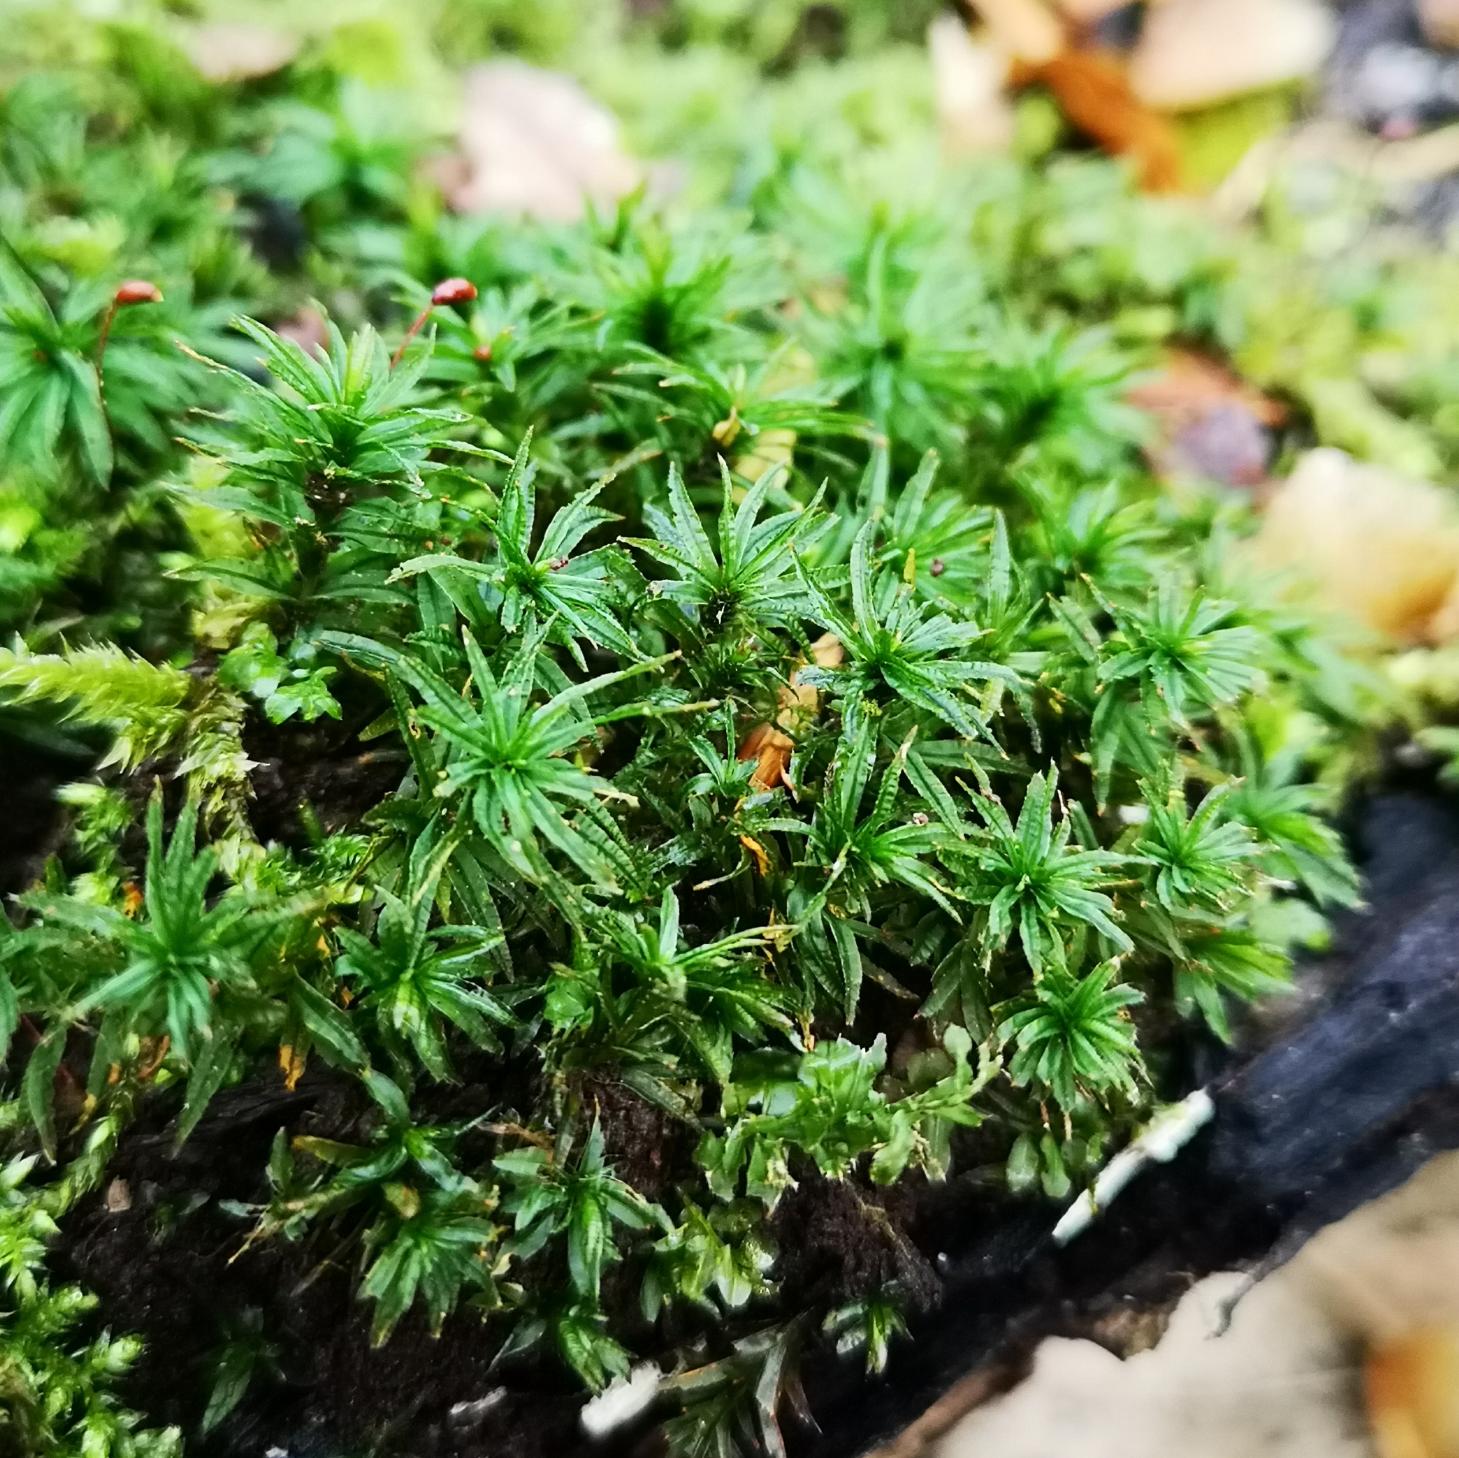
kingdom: Plantae
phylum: Bryophyta
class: Polytrichopsida
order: Polytrichales
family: Polytrichaceae
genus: Atrichum
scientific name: Atrichum undulatum
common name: Bølget katrinemos
